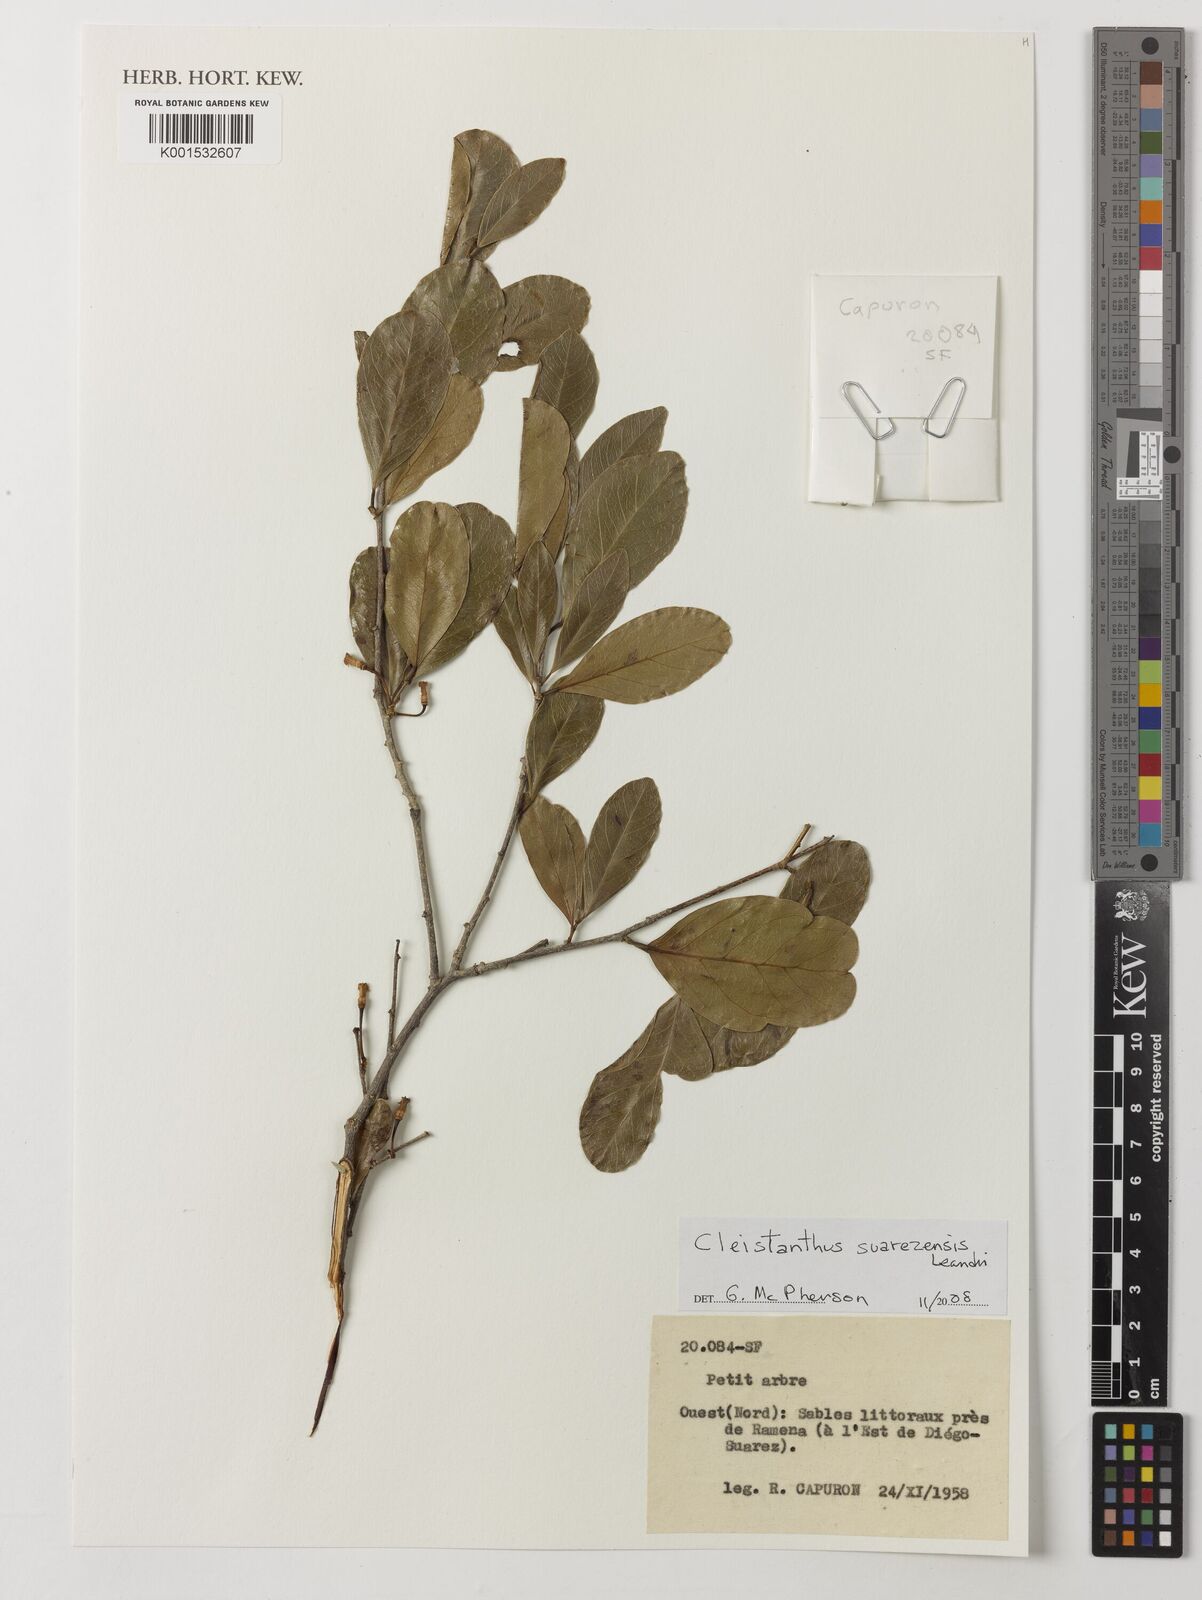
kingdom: Plantae
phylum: Tracheophyta
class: Magnoliopsida
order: Malpighiales
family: Phyllanthaceae
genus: Cleistanthus
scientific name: Cleistanthus suarezensis
